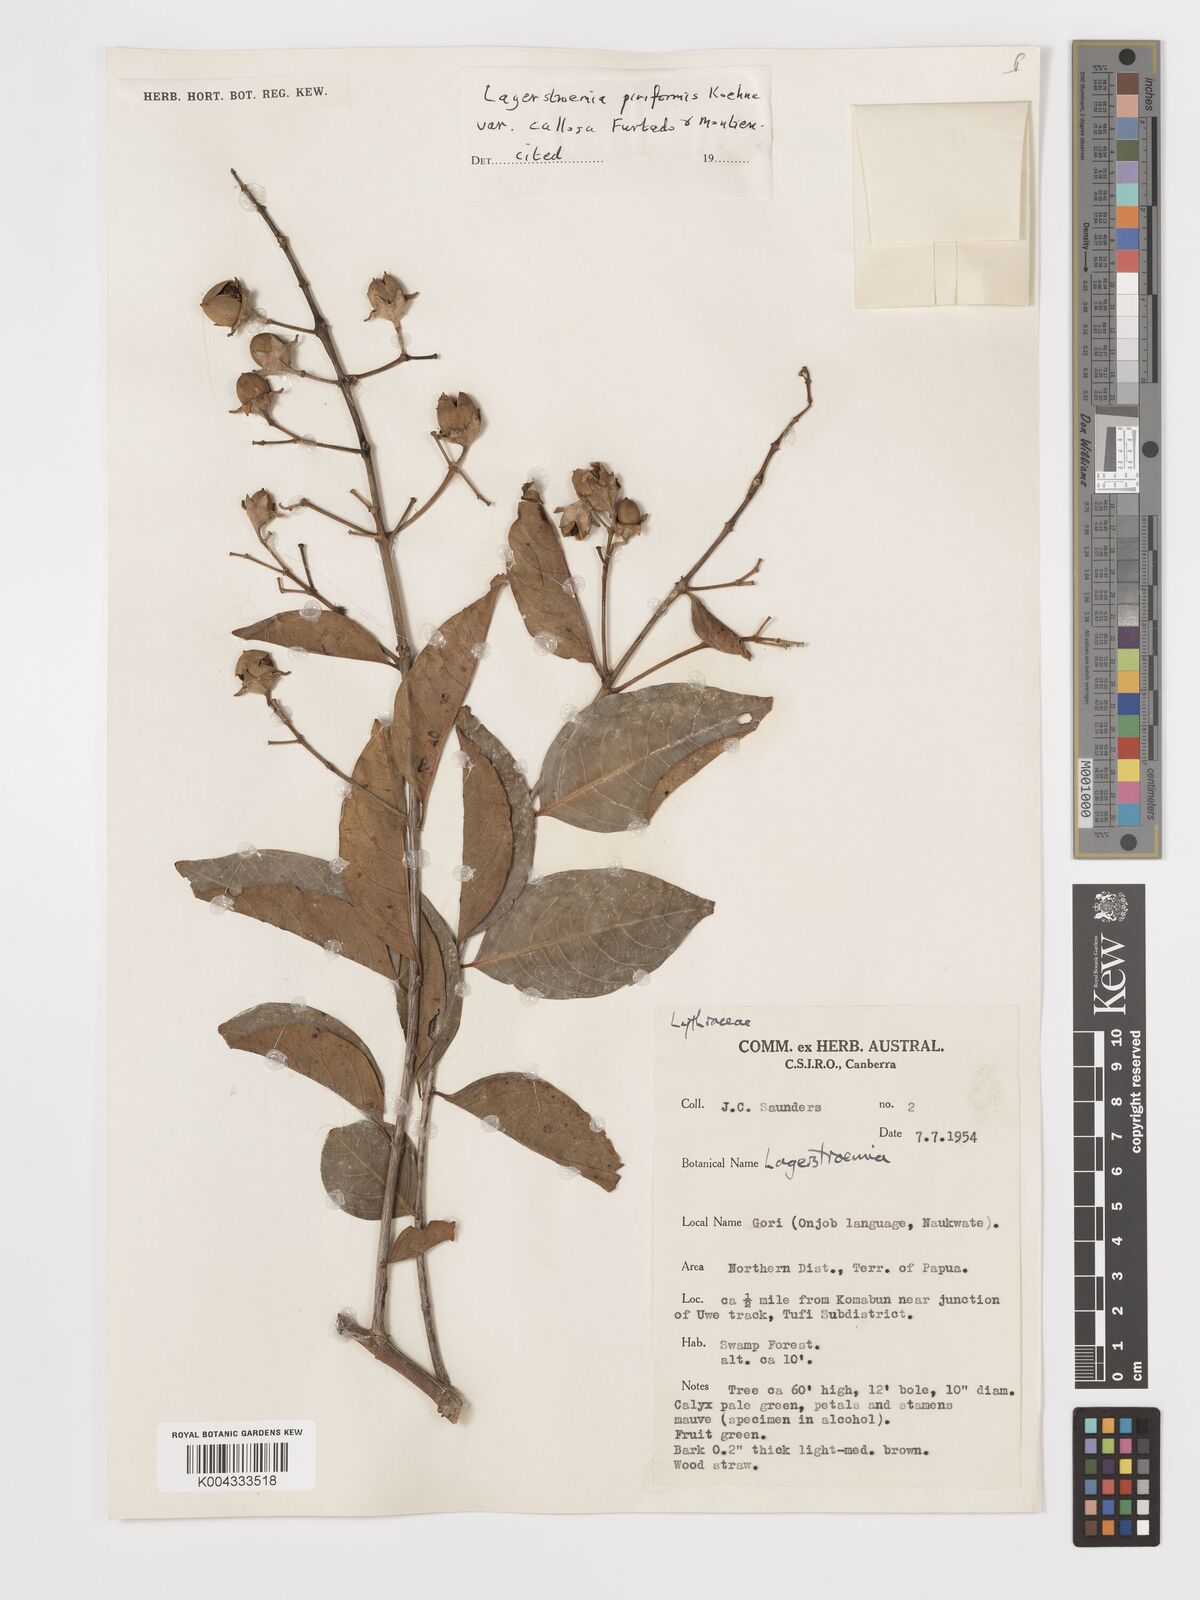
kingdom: Plantae
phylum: Tracheophyta
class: Magnoliopsida
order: Myrtales
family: Lythraceae
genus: Lagerstroemia
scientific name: Lagerstroemia celebica
